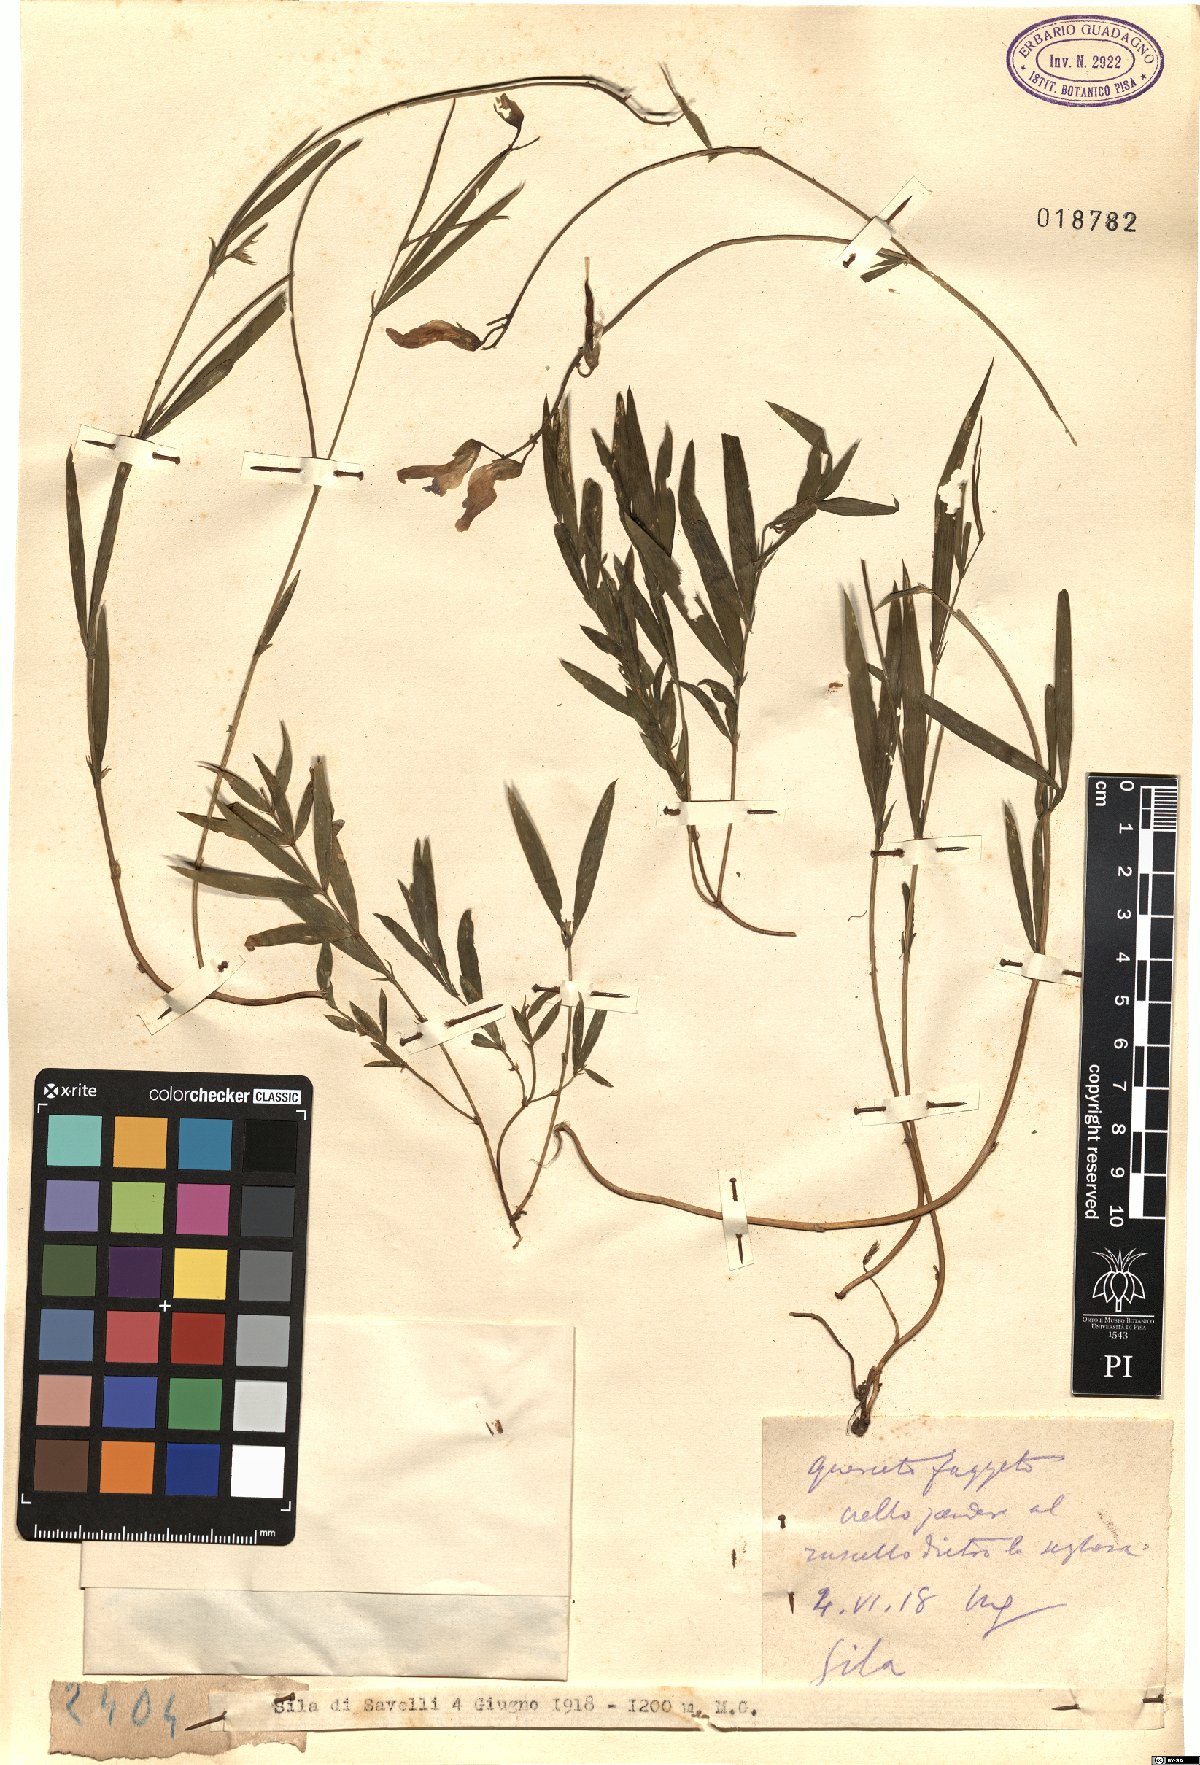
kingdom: Plantae
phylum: Tracheophyta
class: Magnoliopsida
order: Fabales
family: Fabaceae
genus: Lathyrus
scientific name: Lathyrus
